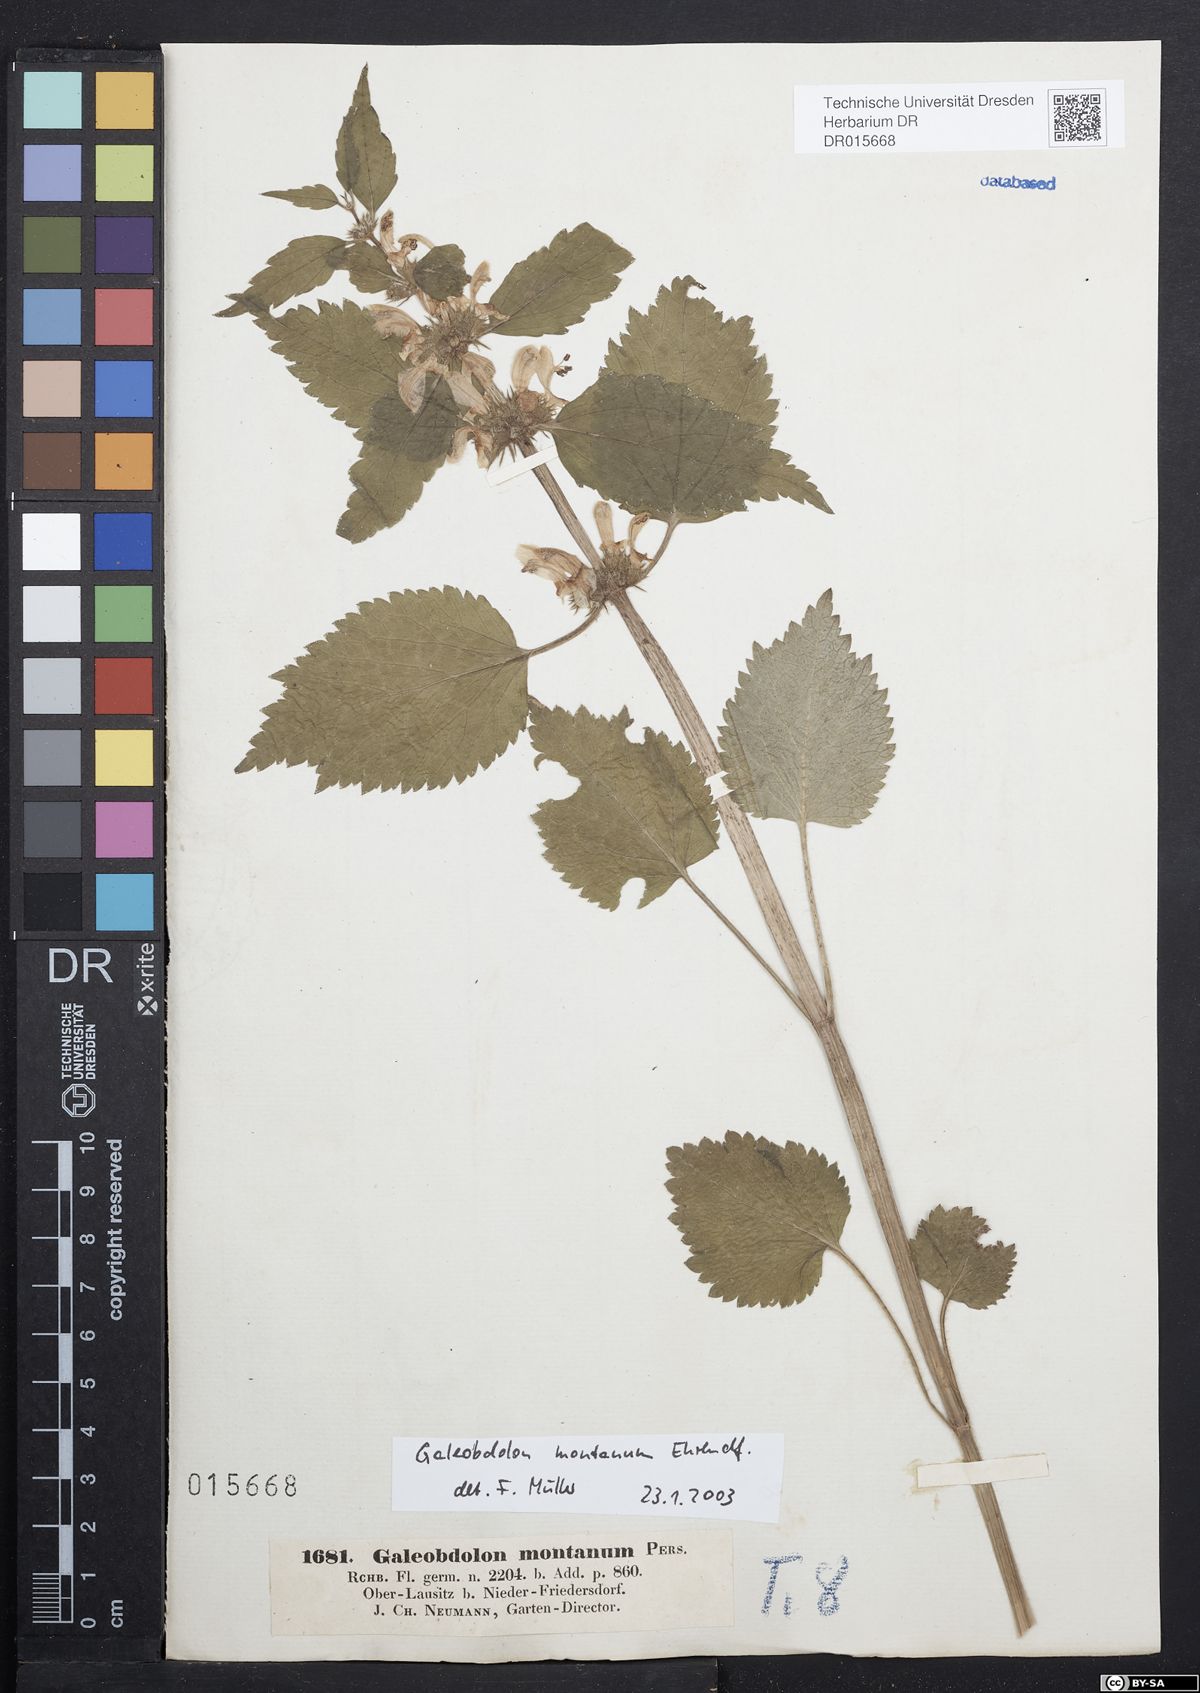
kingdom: Plantae
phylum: Tracheophyta
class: Magnoliopsida
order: Lamiales
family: Lamiaceae
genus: Lamium
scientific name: Lamium galeobdolon
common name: Yellow archangel
